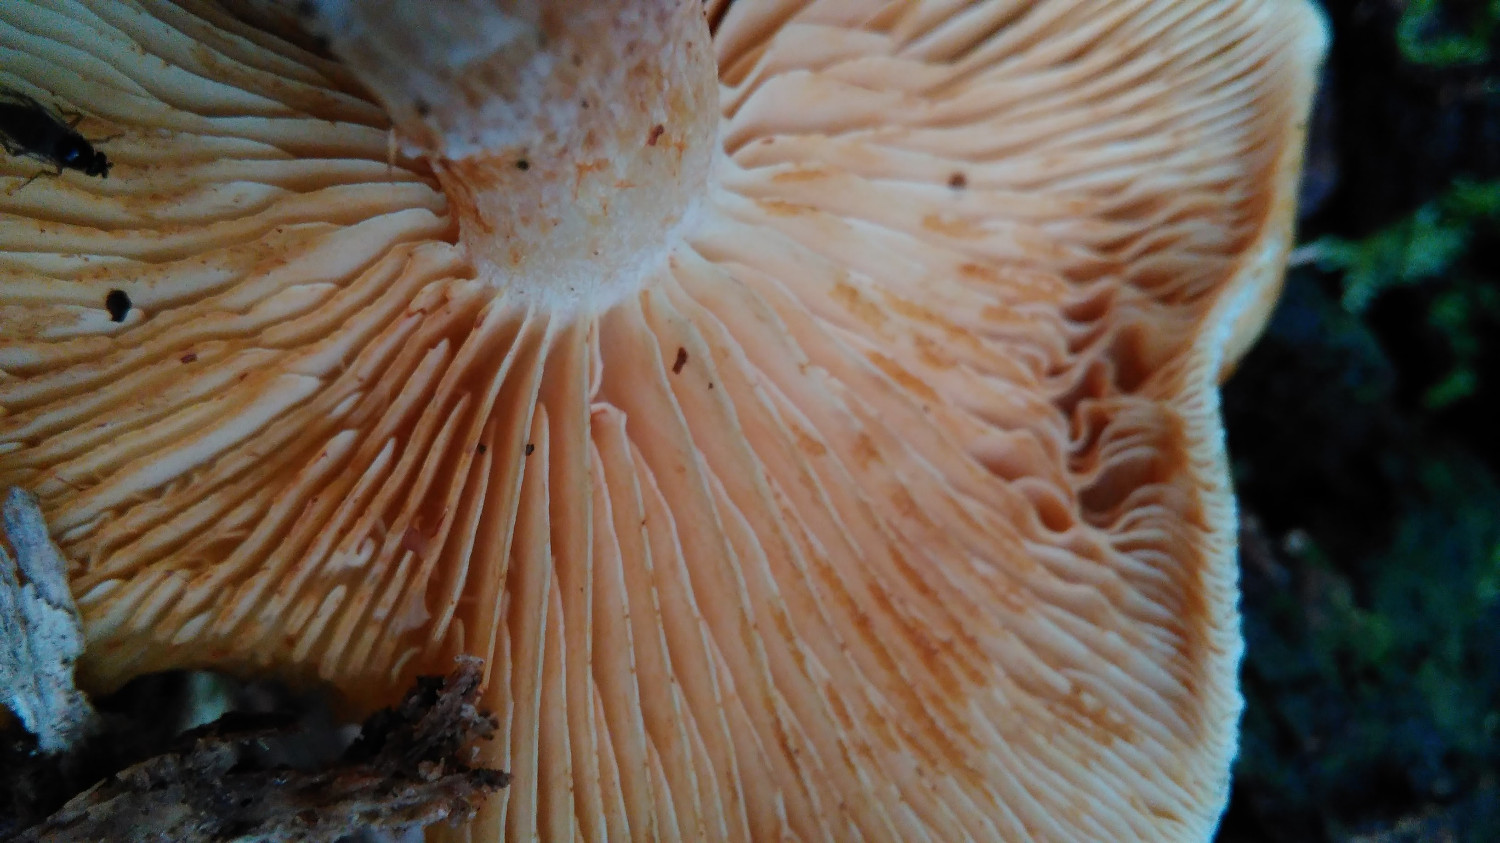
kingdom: Fungi
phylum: Basidiomycota
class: Agaricomycetes
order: Agaricales
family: Hymenogastraceae
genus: Gymnopilus
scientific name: Gymnopilus penetrans
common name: plettet flammehat
